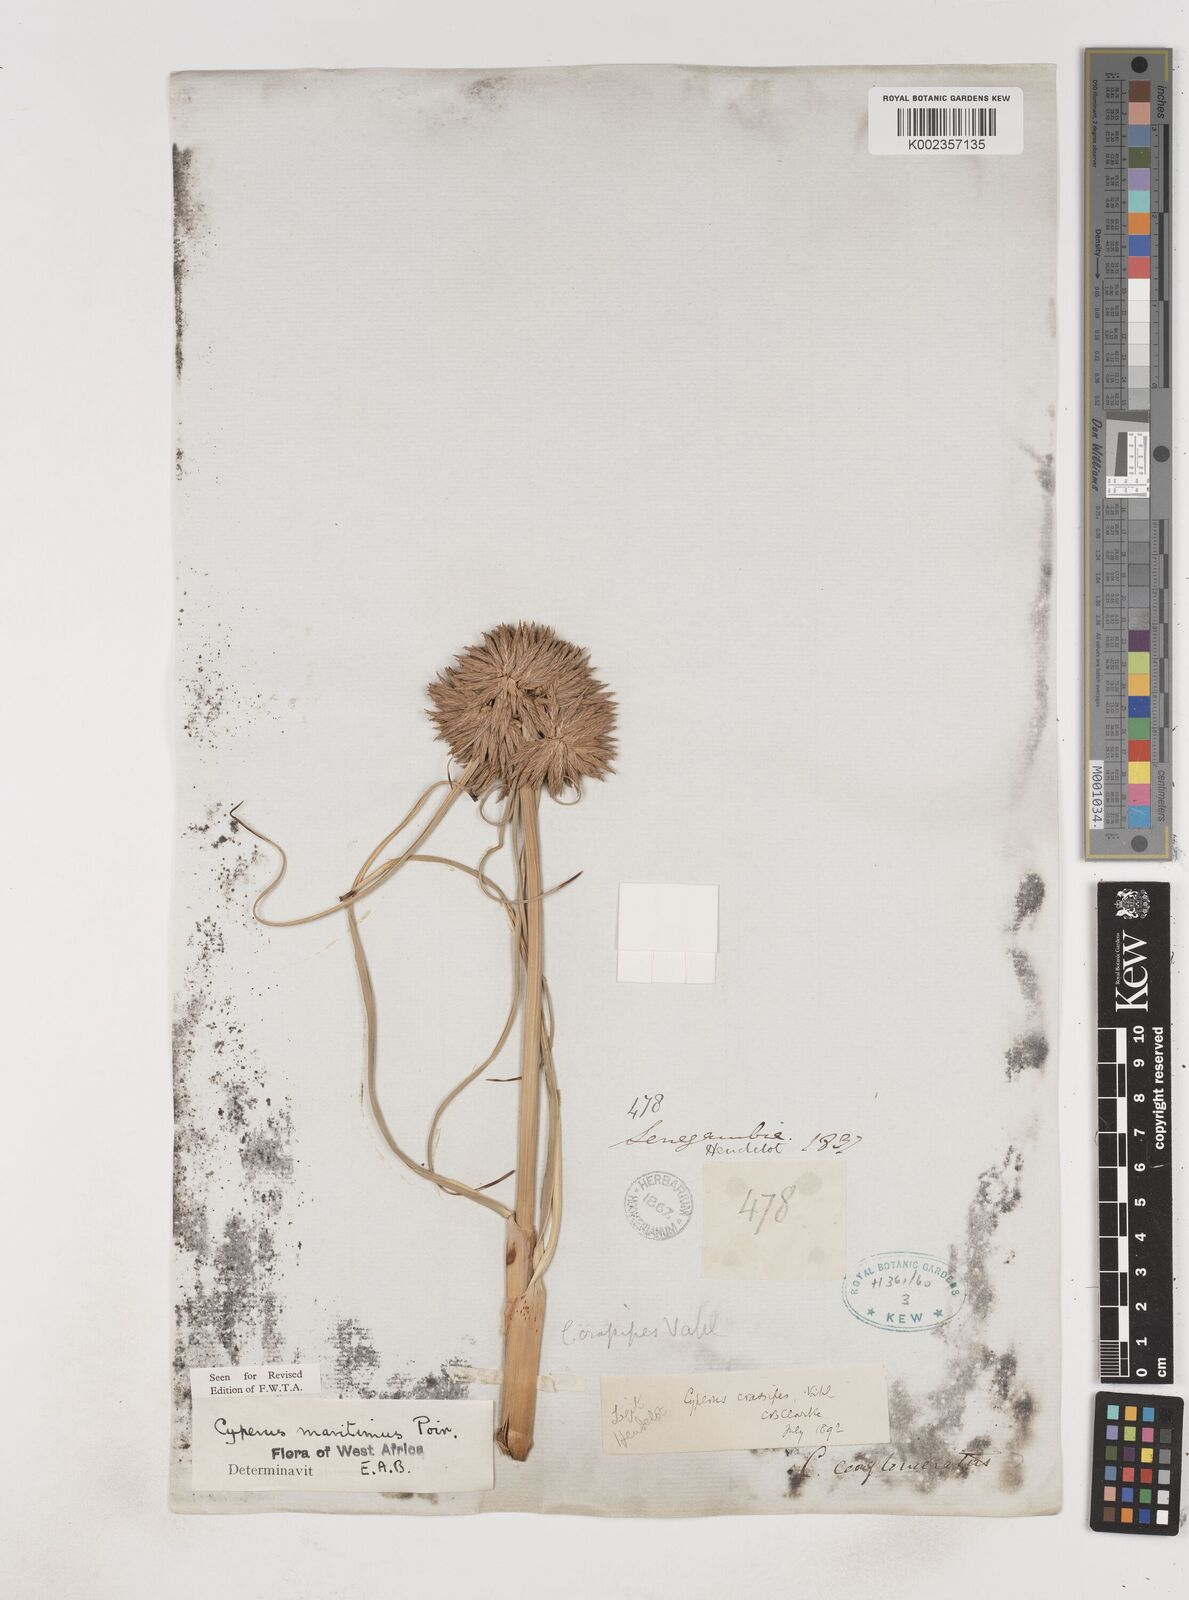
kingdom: Plantae
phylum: Tracheophyta
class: Liliopsida
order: Poales
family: Cyperaceae
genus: Cyperus
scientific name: Cyperus crassipes
